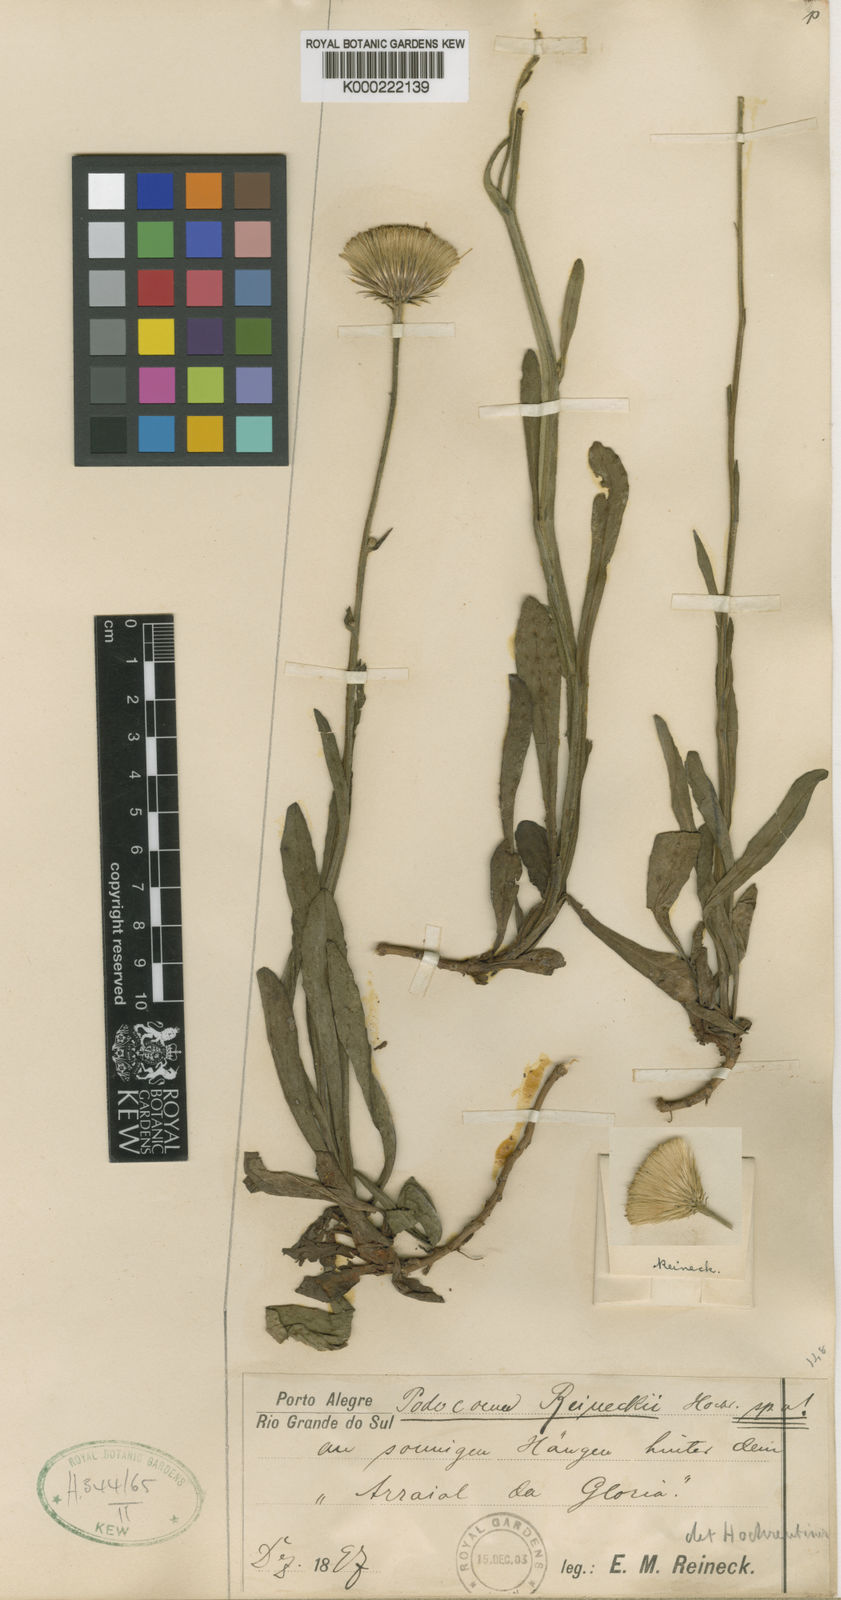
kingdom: Plantae
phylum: Tracheophyta
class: Magnoliopsida
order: Asterales
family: Asteraceae
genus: Stenachaenium
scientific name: Stenachaenium campestre
